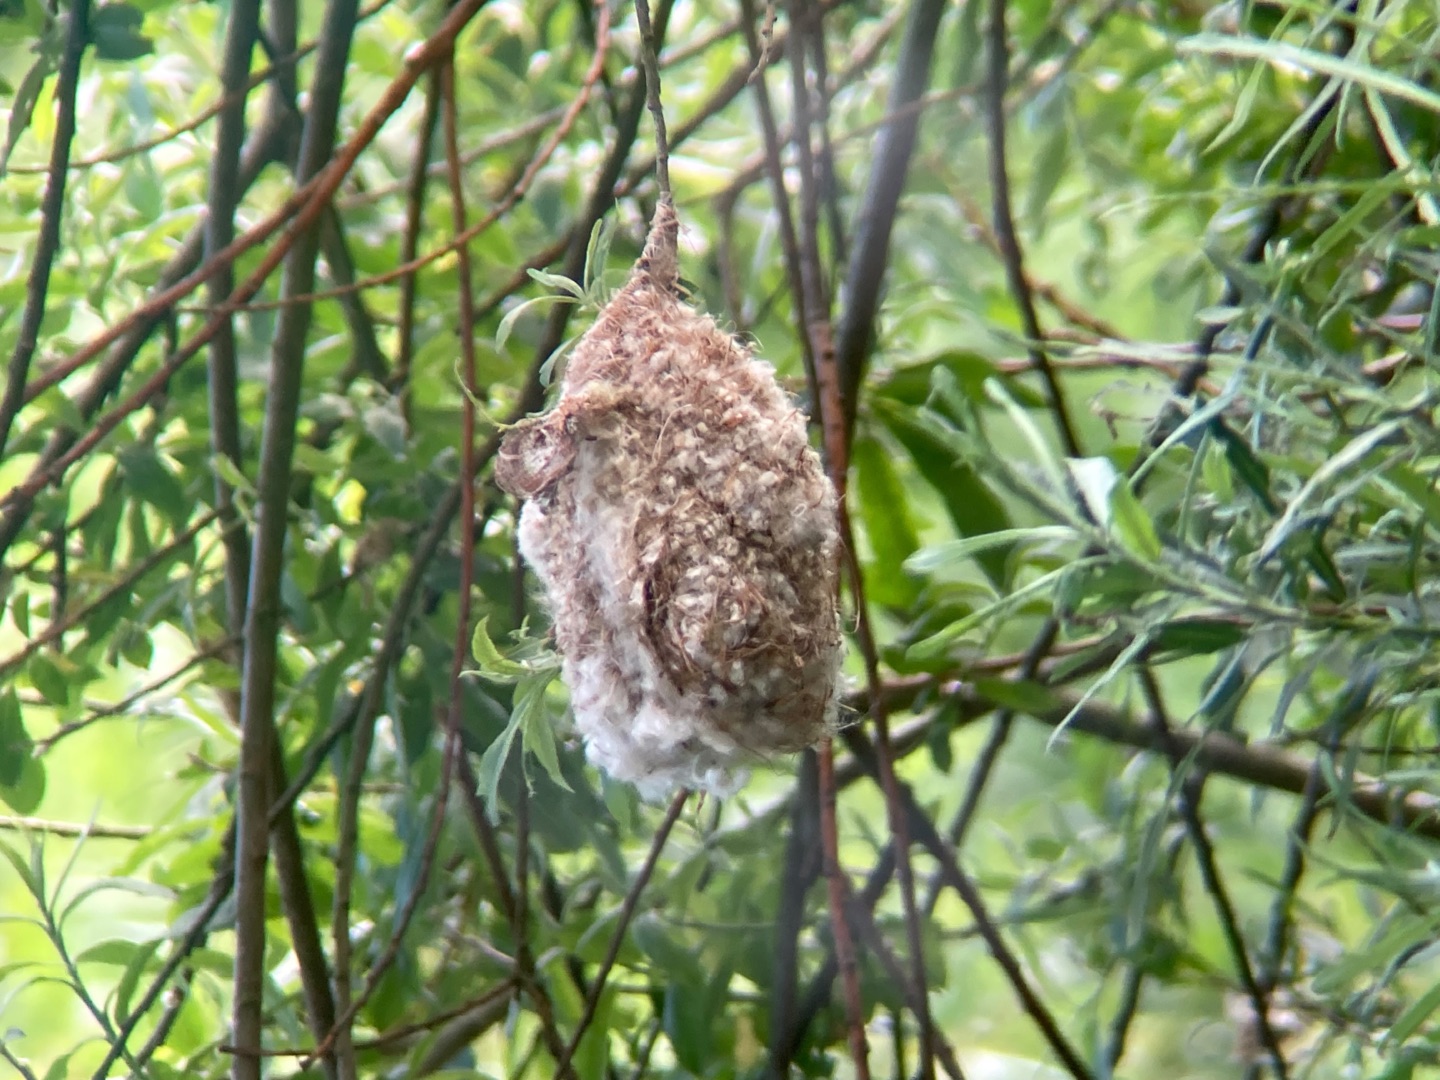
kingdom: Animalia
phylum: Chordata
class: Aves
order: Passeriformes
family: Remizidae
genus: Remiz
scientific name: Remiz pendulinus
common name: Pungmejse
